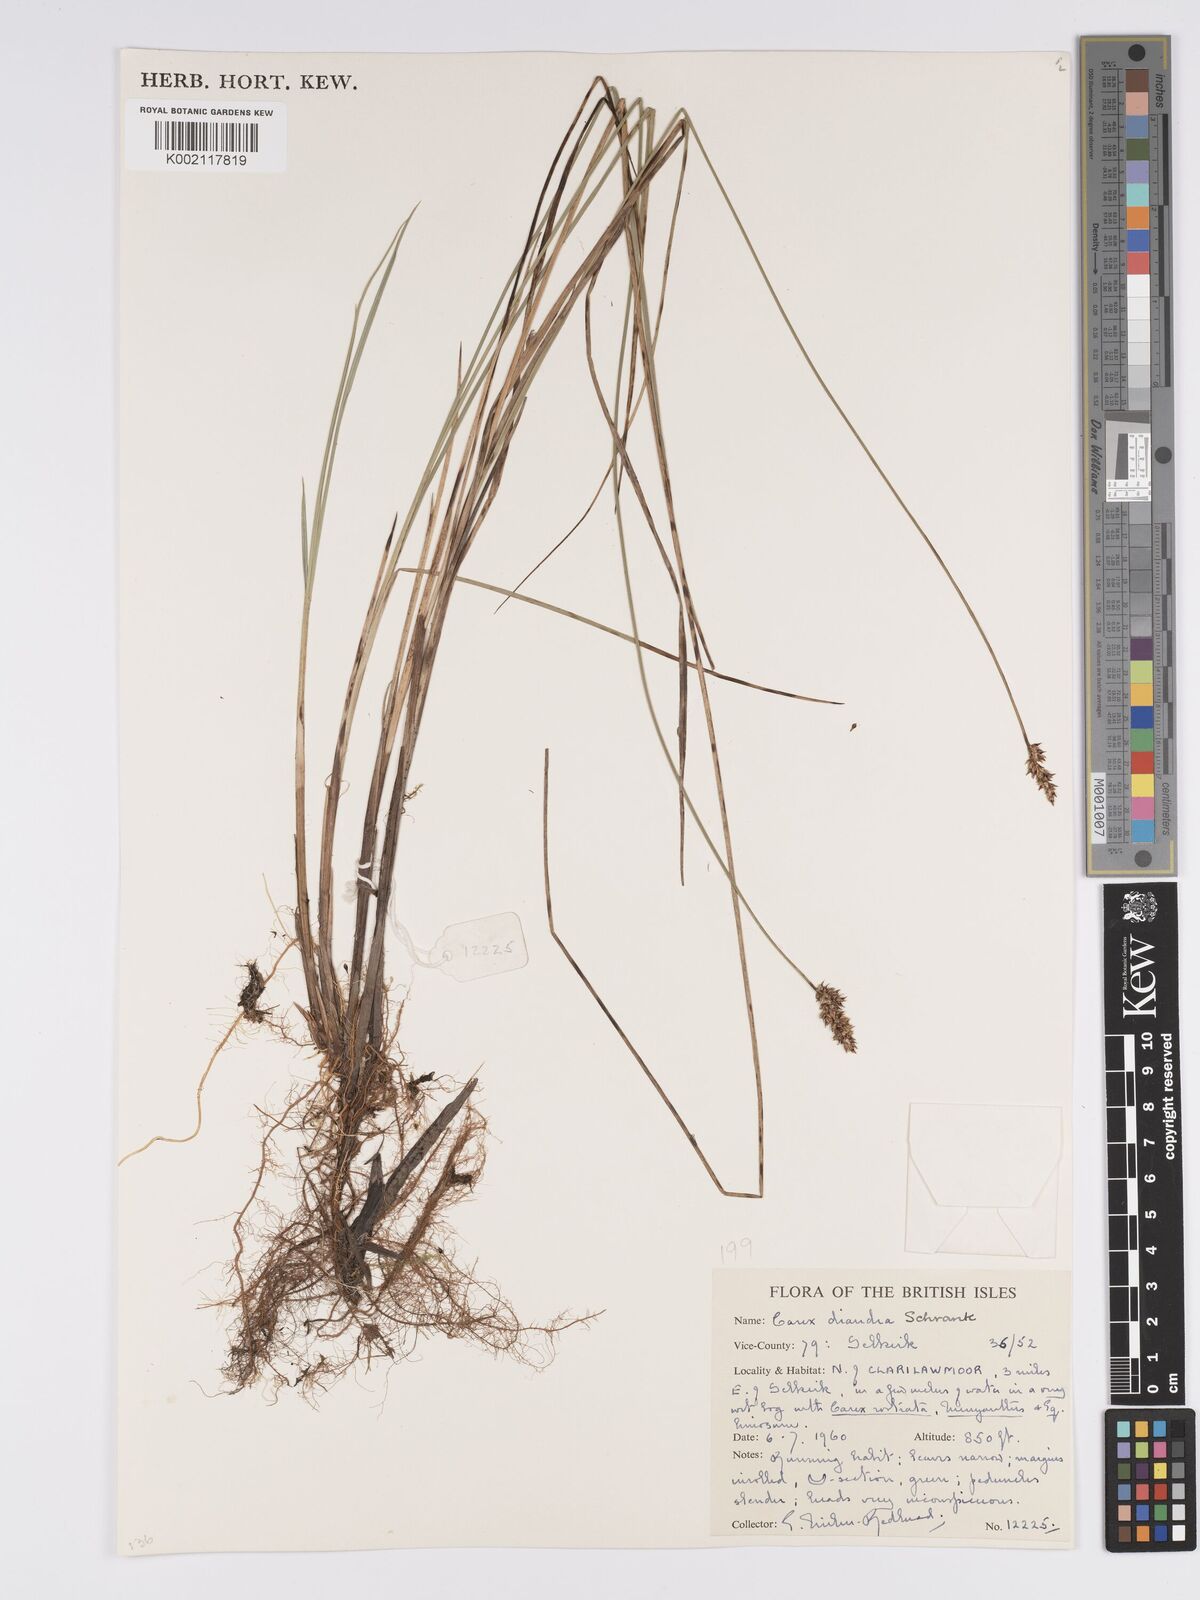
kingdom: Plantae
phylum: Tracheophyta
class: Liliopsida
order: Poales
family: Cyperaceae
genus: Carex
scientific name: Carex diandra
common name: Lesser tussock-sedge
